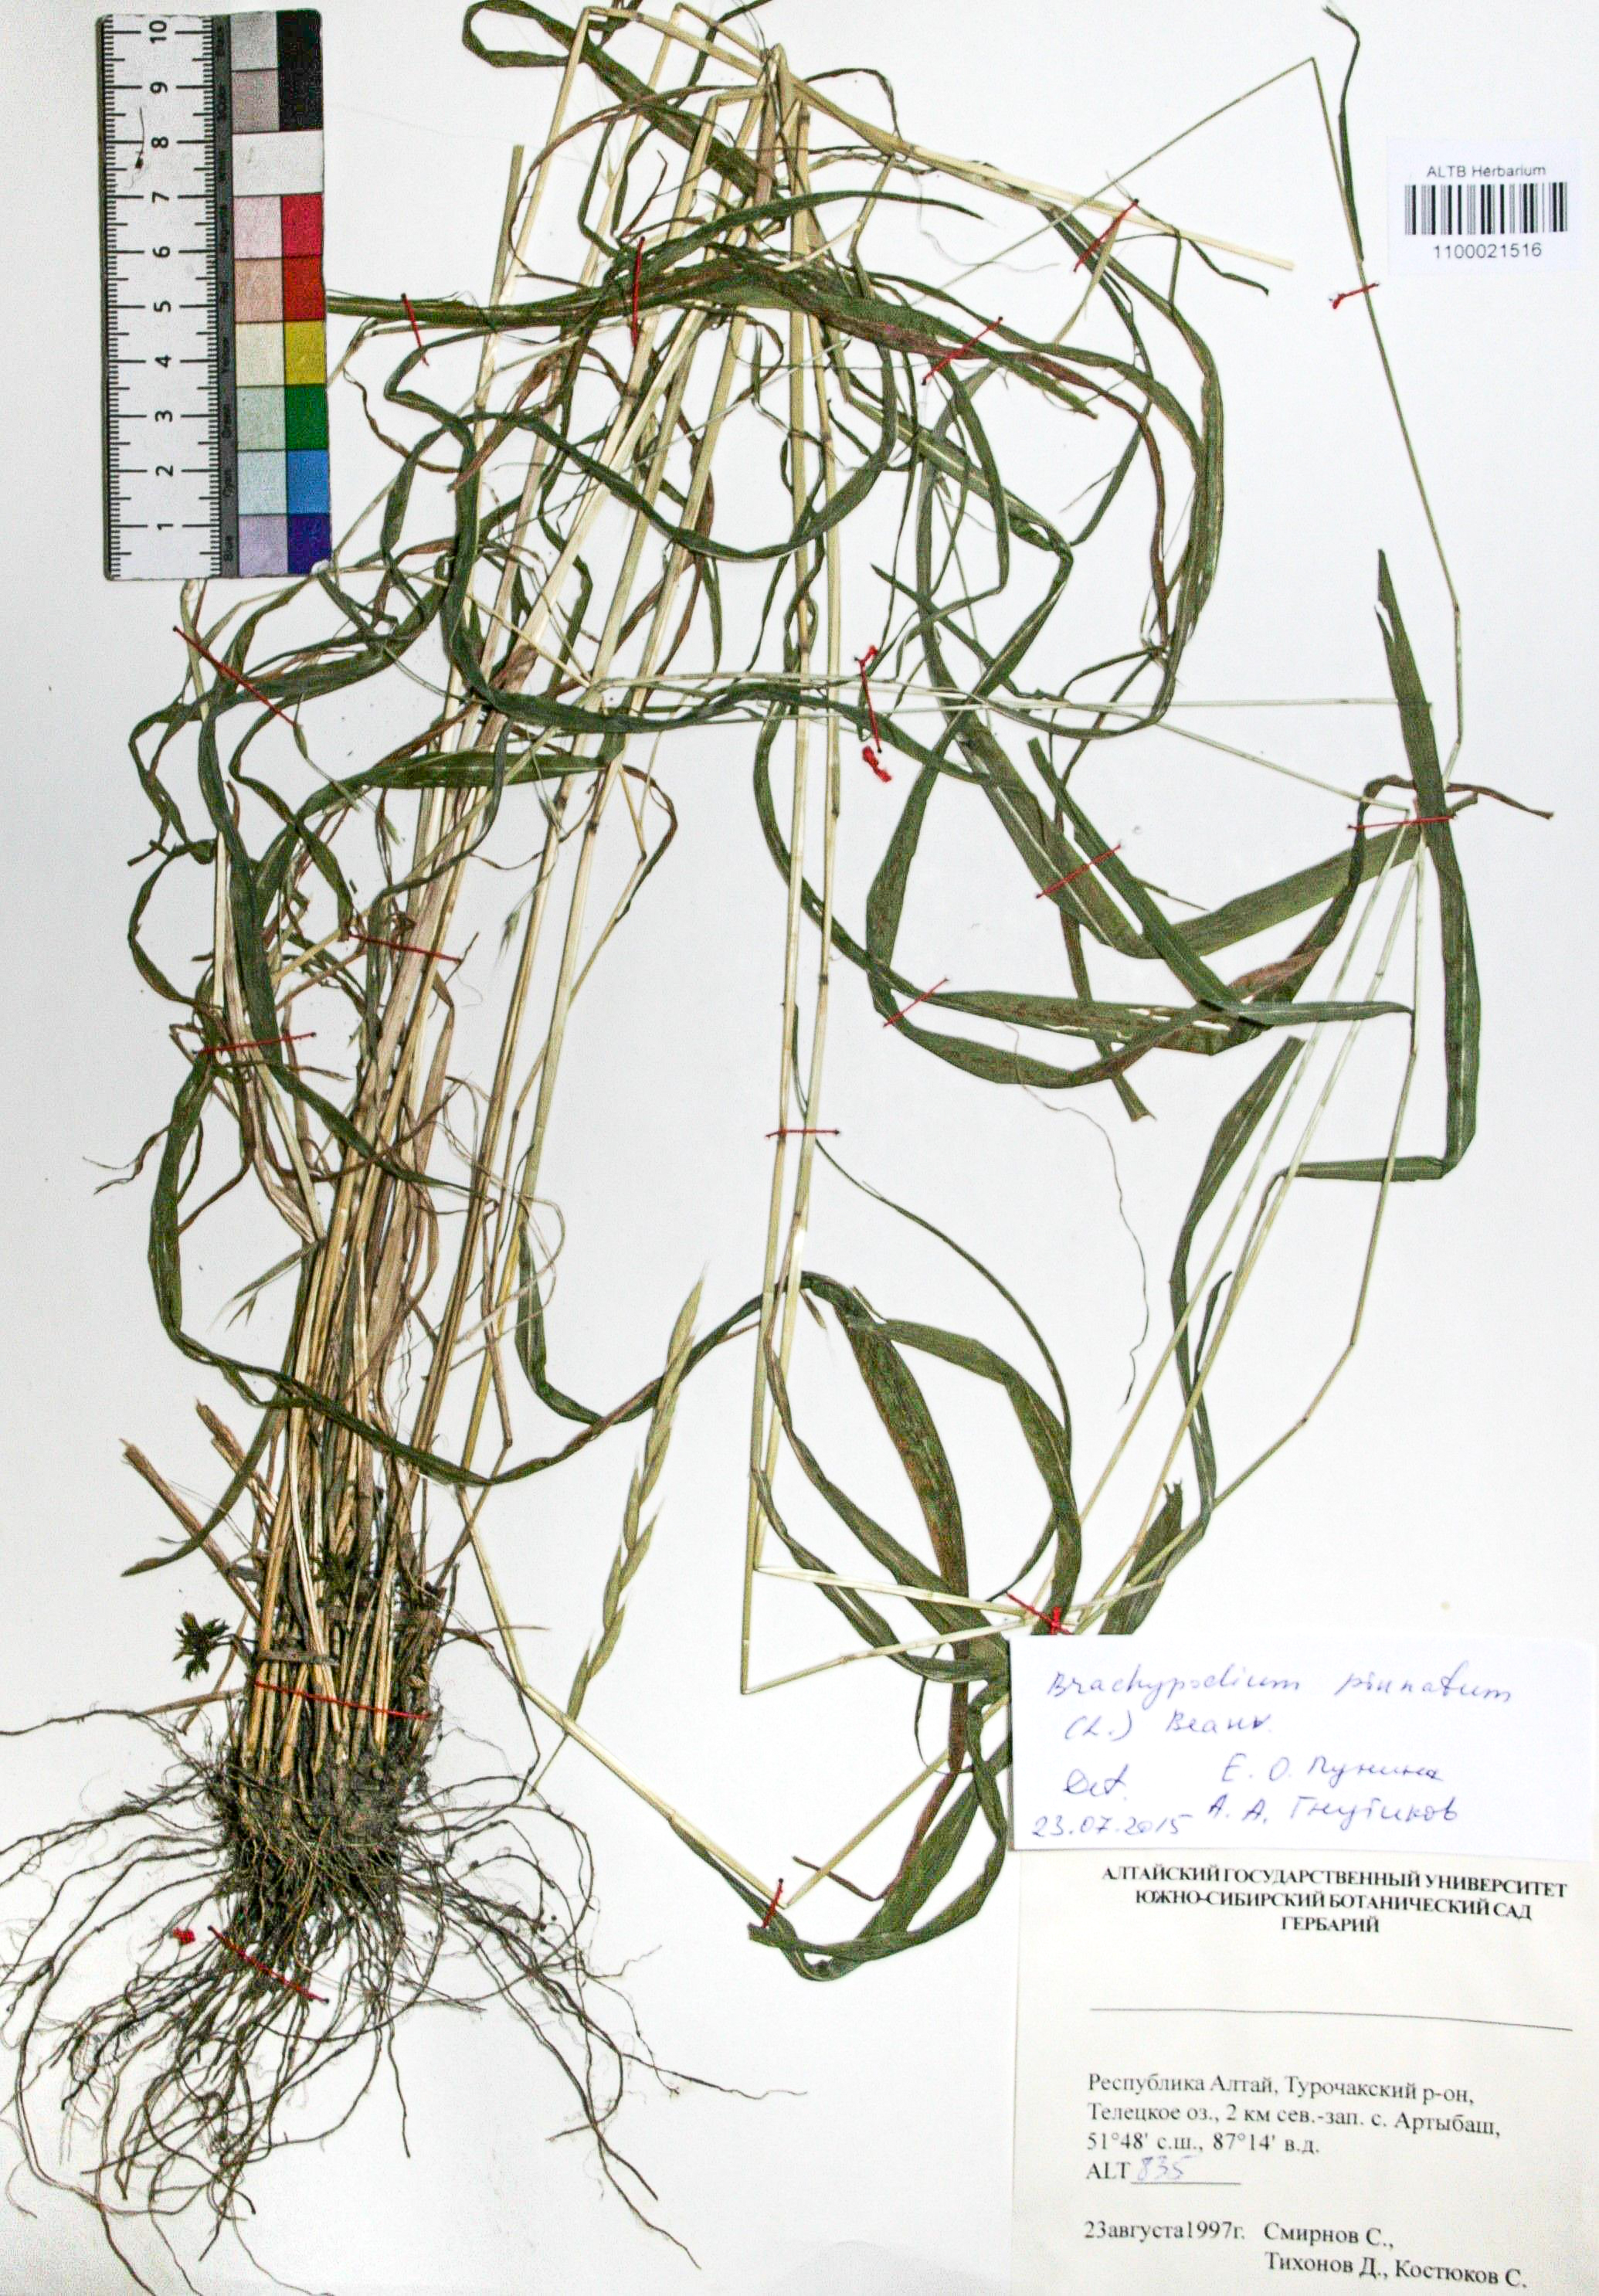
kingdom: Plantae
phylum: Tracheophyta
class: Liliopsida
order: Poales
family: Poaceae
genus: Brachypodium
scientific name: Brachypodium pinnatum
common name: Tor grass
